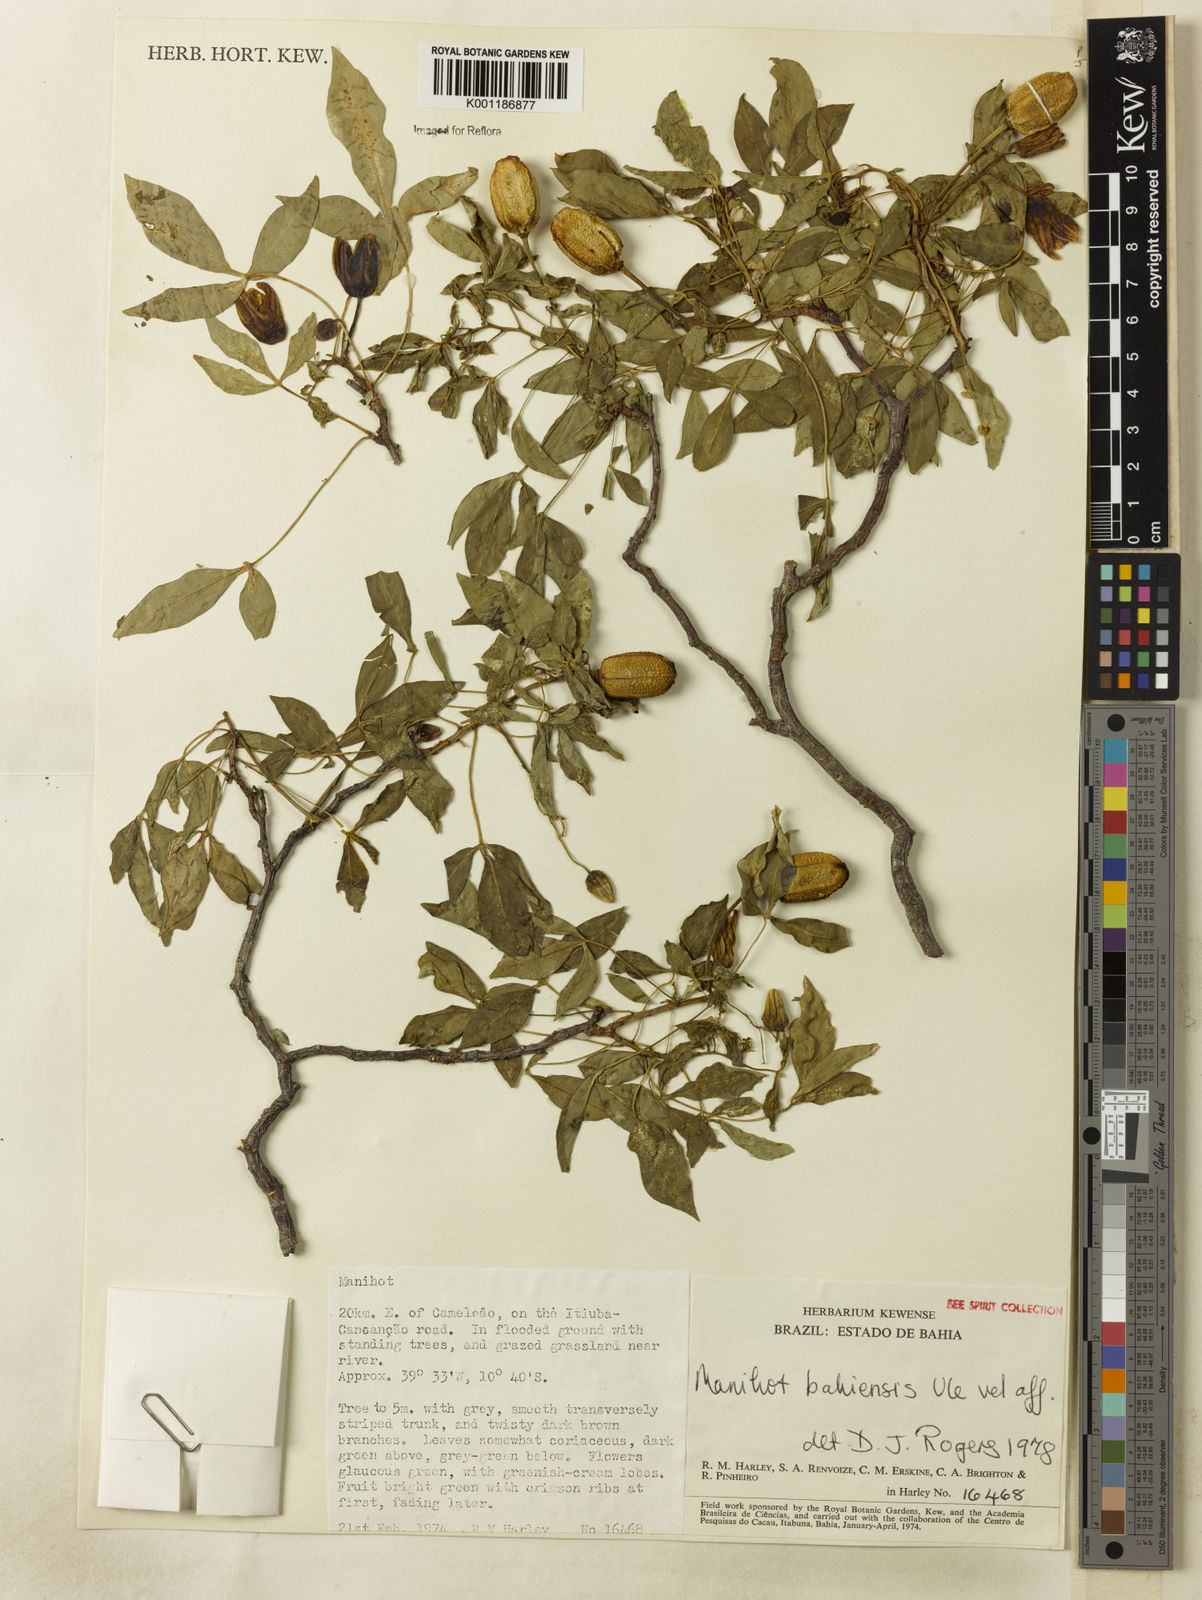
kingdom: Plantae
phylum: Tracheophyta
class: Magnoliopsida
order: Malpighiales
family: Euphorbiaceae
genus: Manihot
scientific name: Manihot caerulescens
